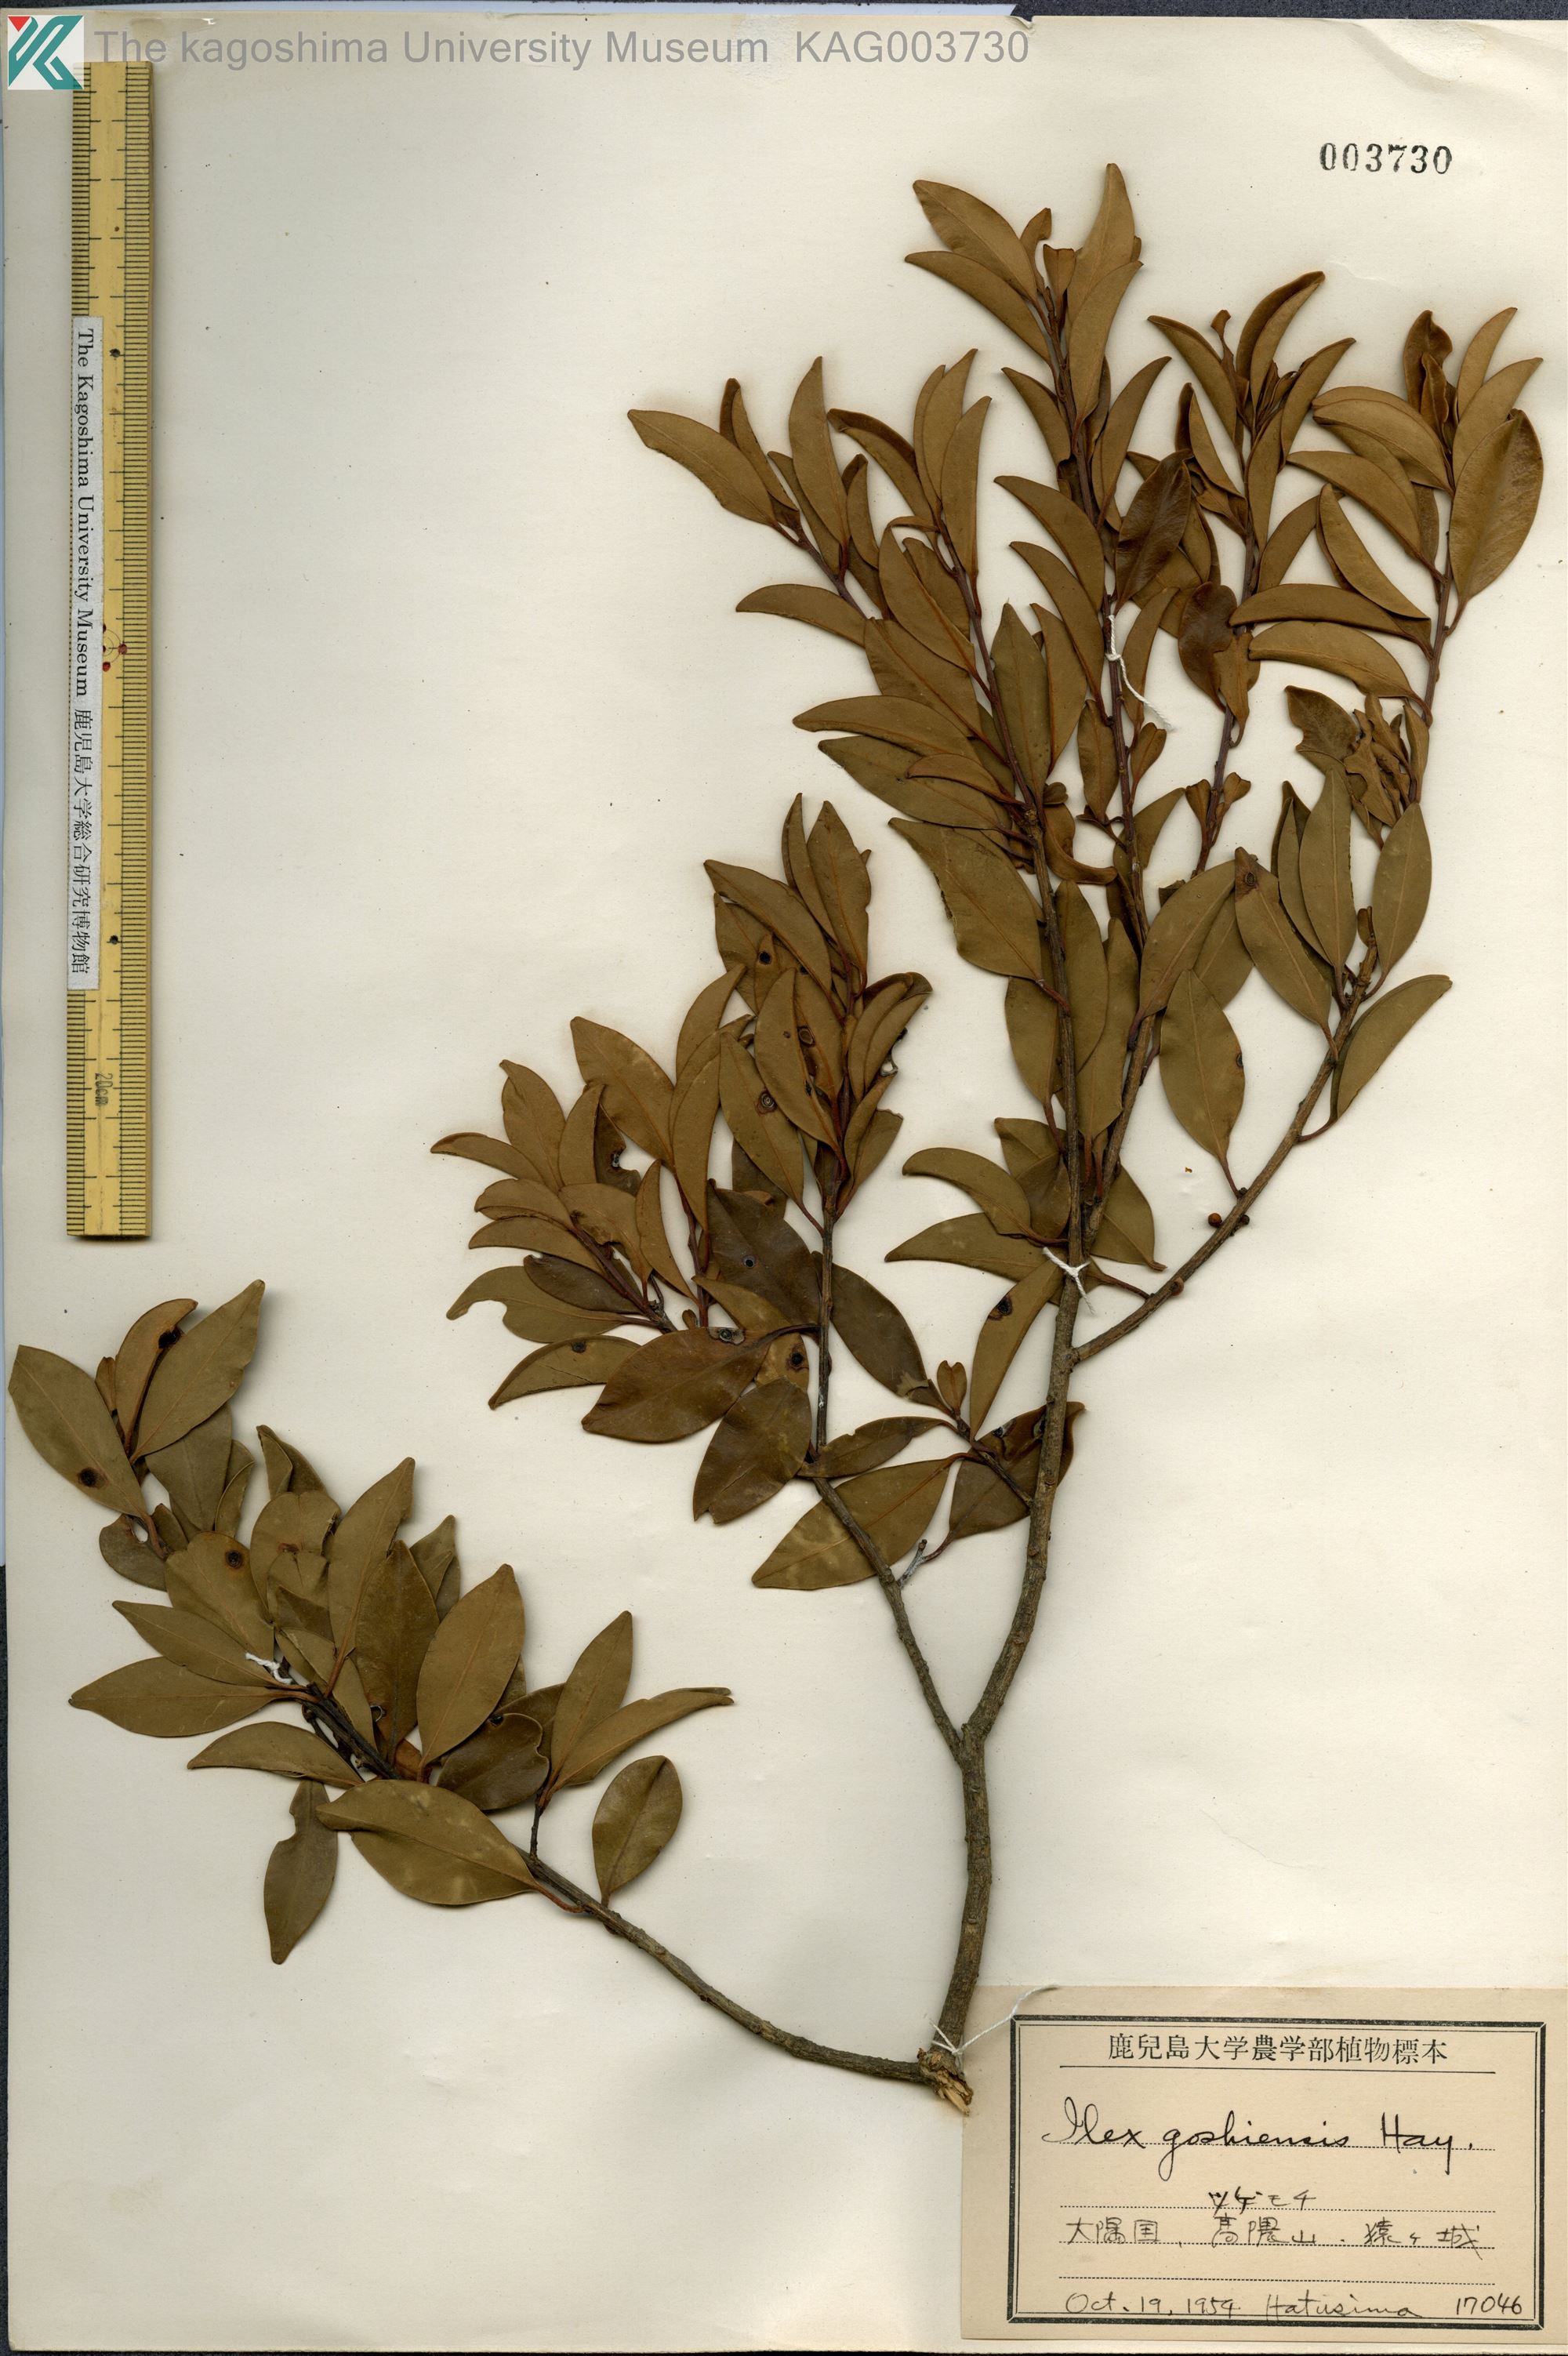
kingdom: Plantae
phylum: Tracheophyta
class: Magnoliopsida
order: Aquifoliales
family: Aquifoliaceae
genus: Ilex
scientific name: Ilex goshiensis
